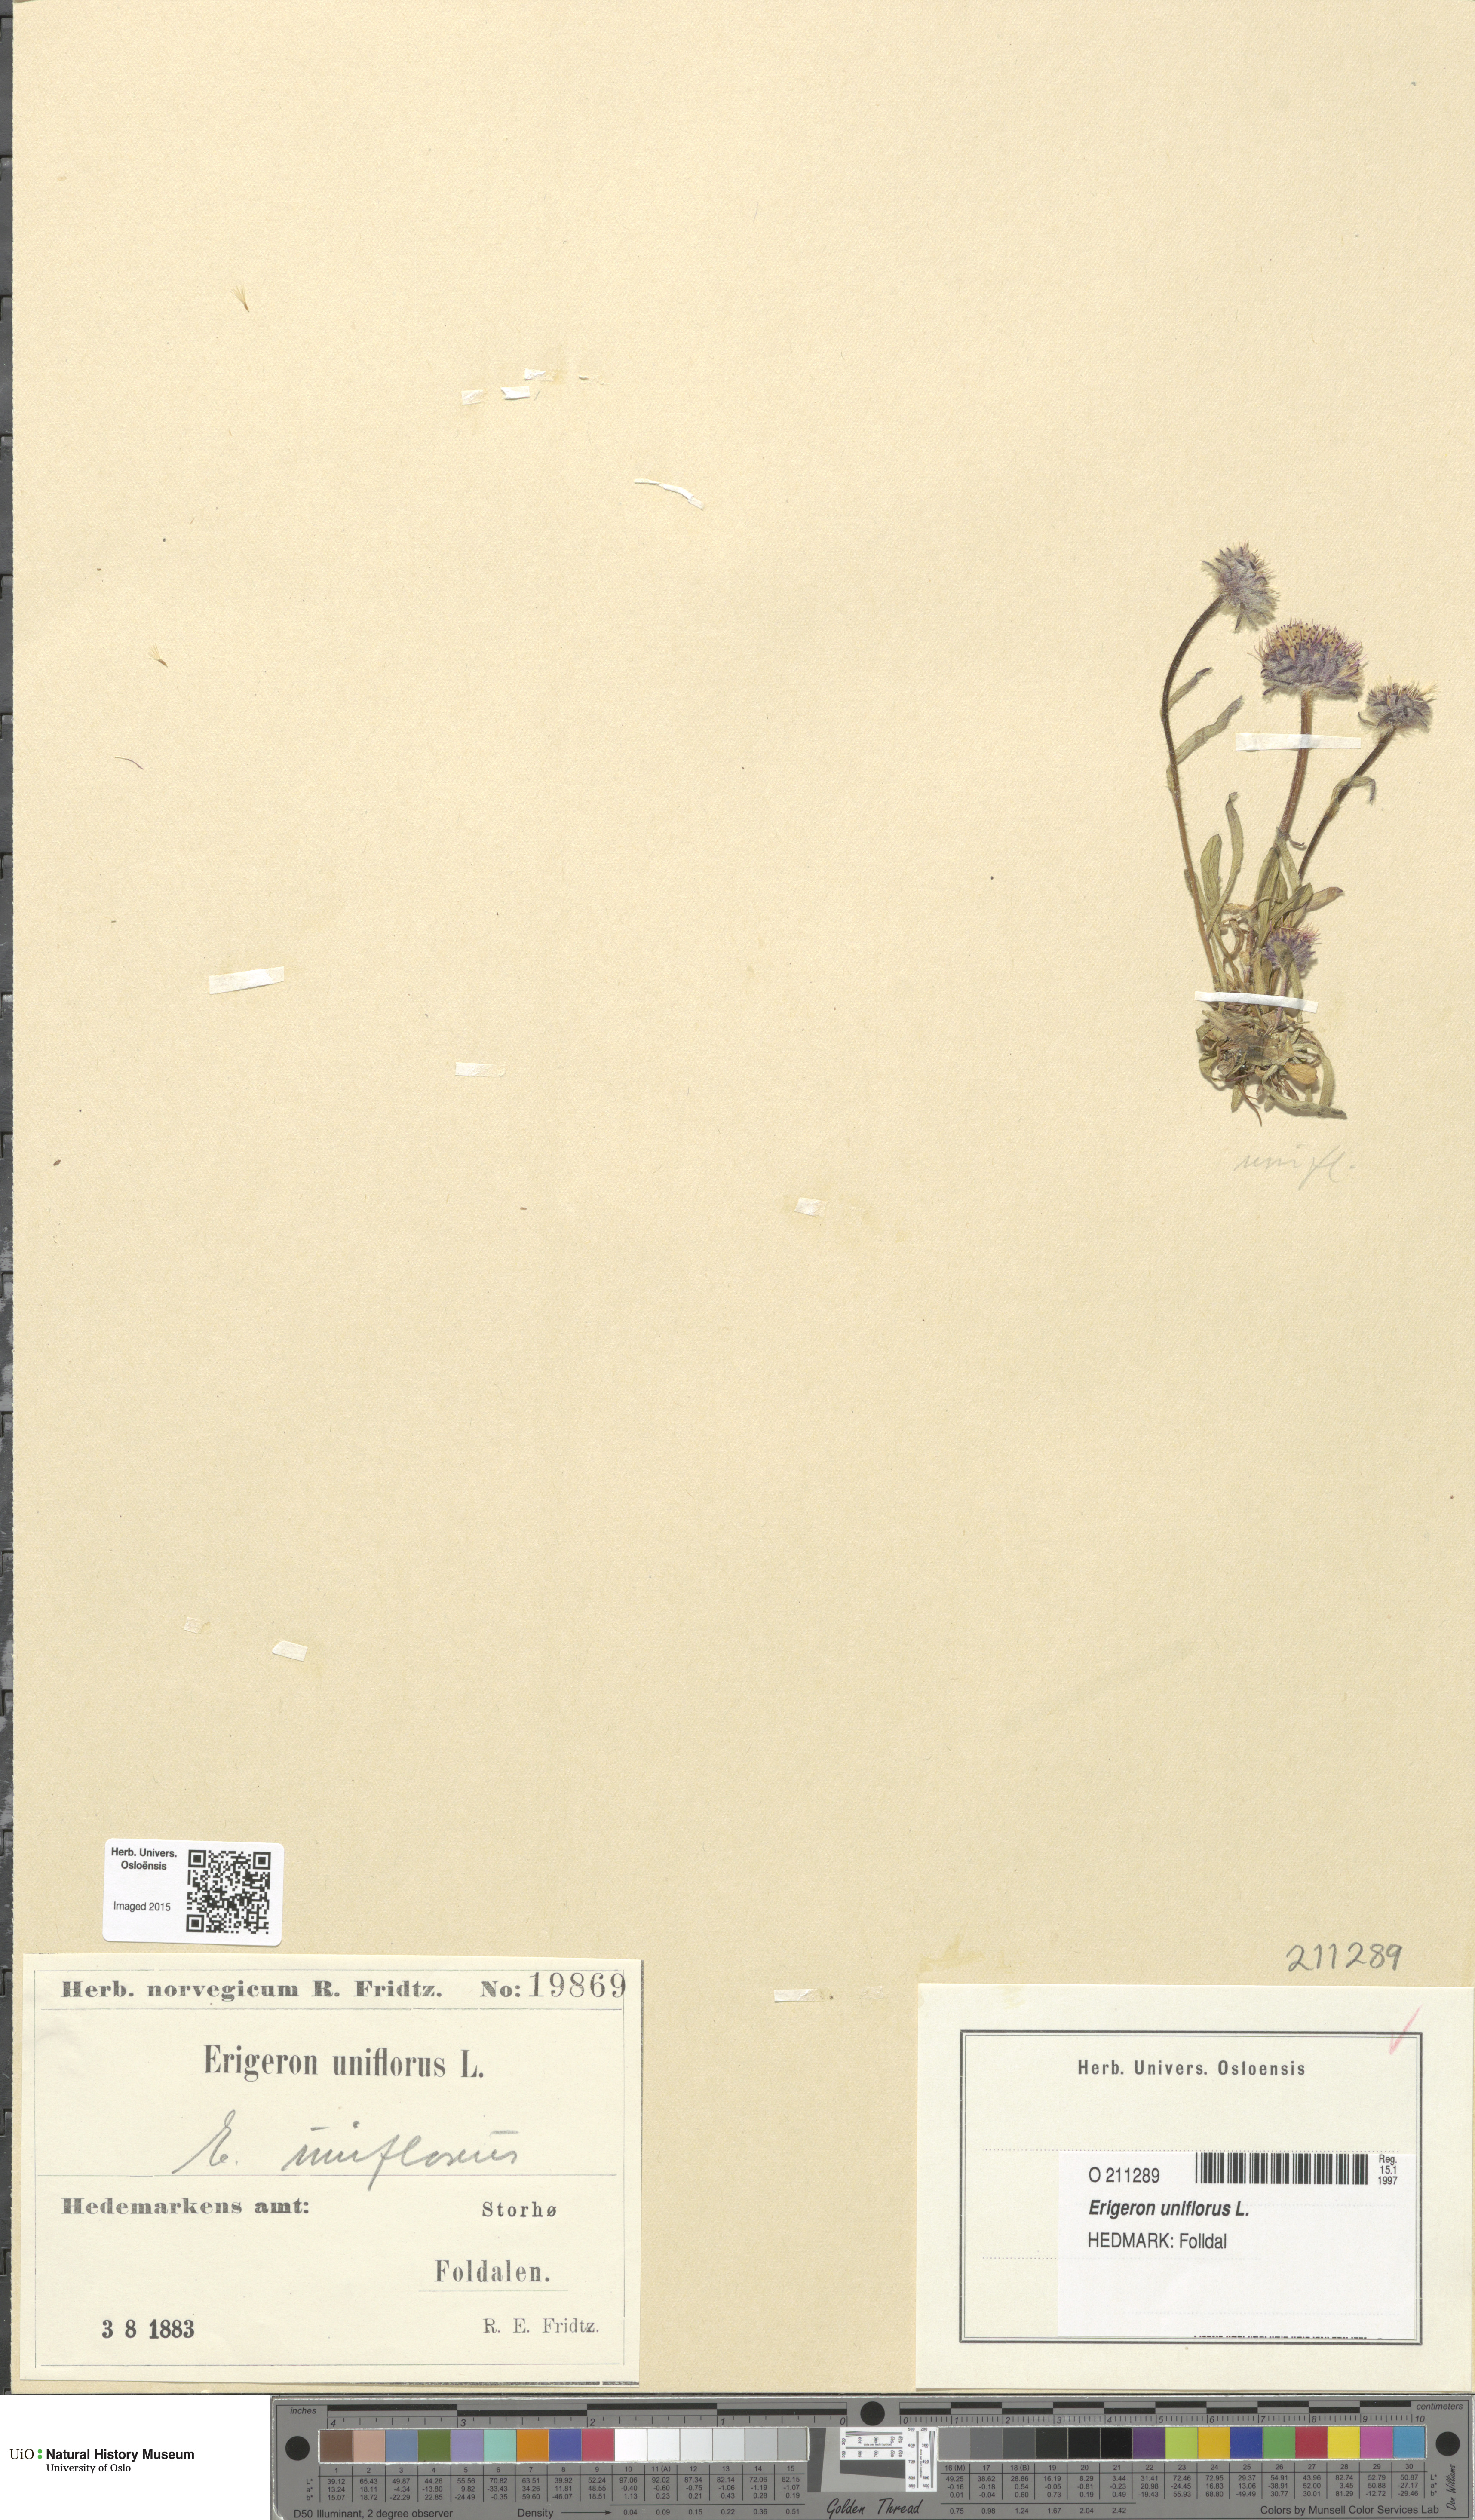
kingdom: Plantae
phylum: Tracheophyta
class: Magnoliopsida
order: Asterales
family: Asteraceae
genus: Erigeron
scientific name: Erigeron uniflorus
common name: Northern daisy
